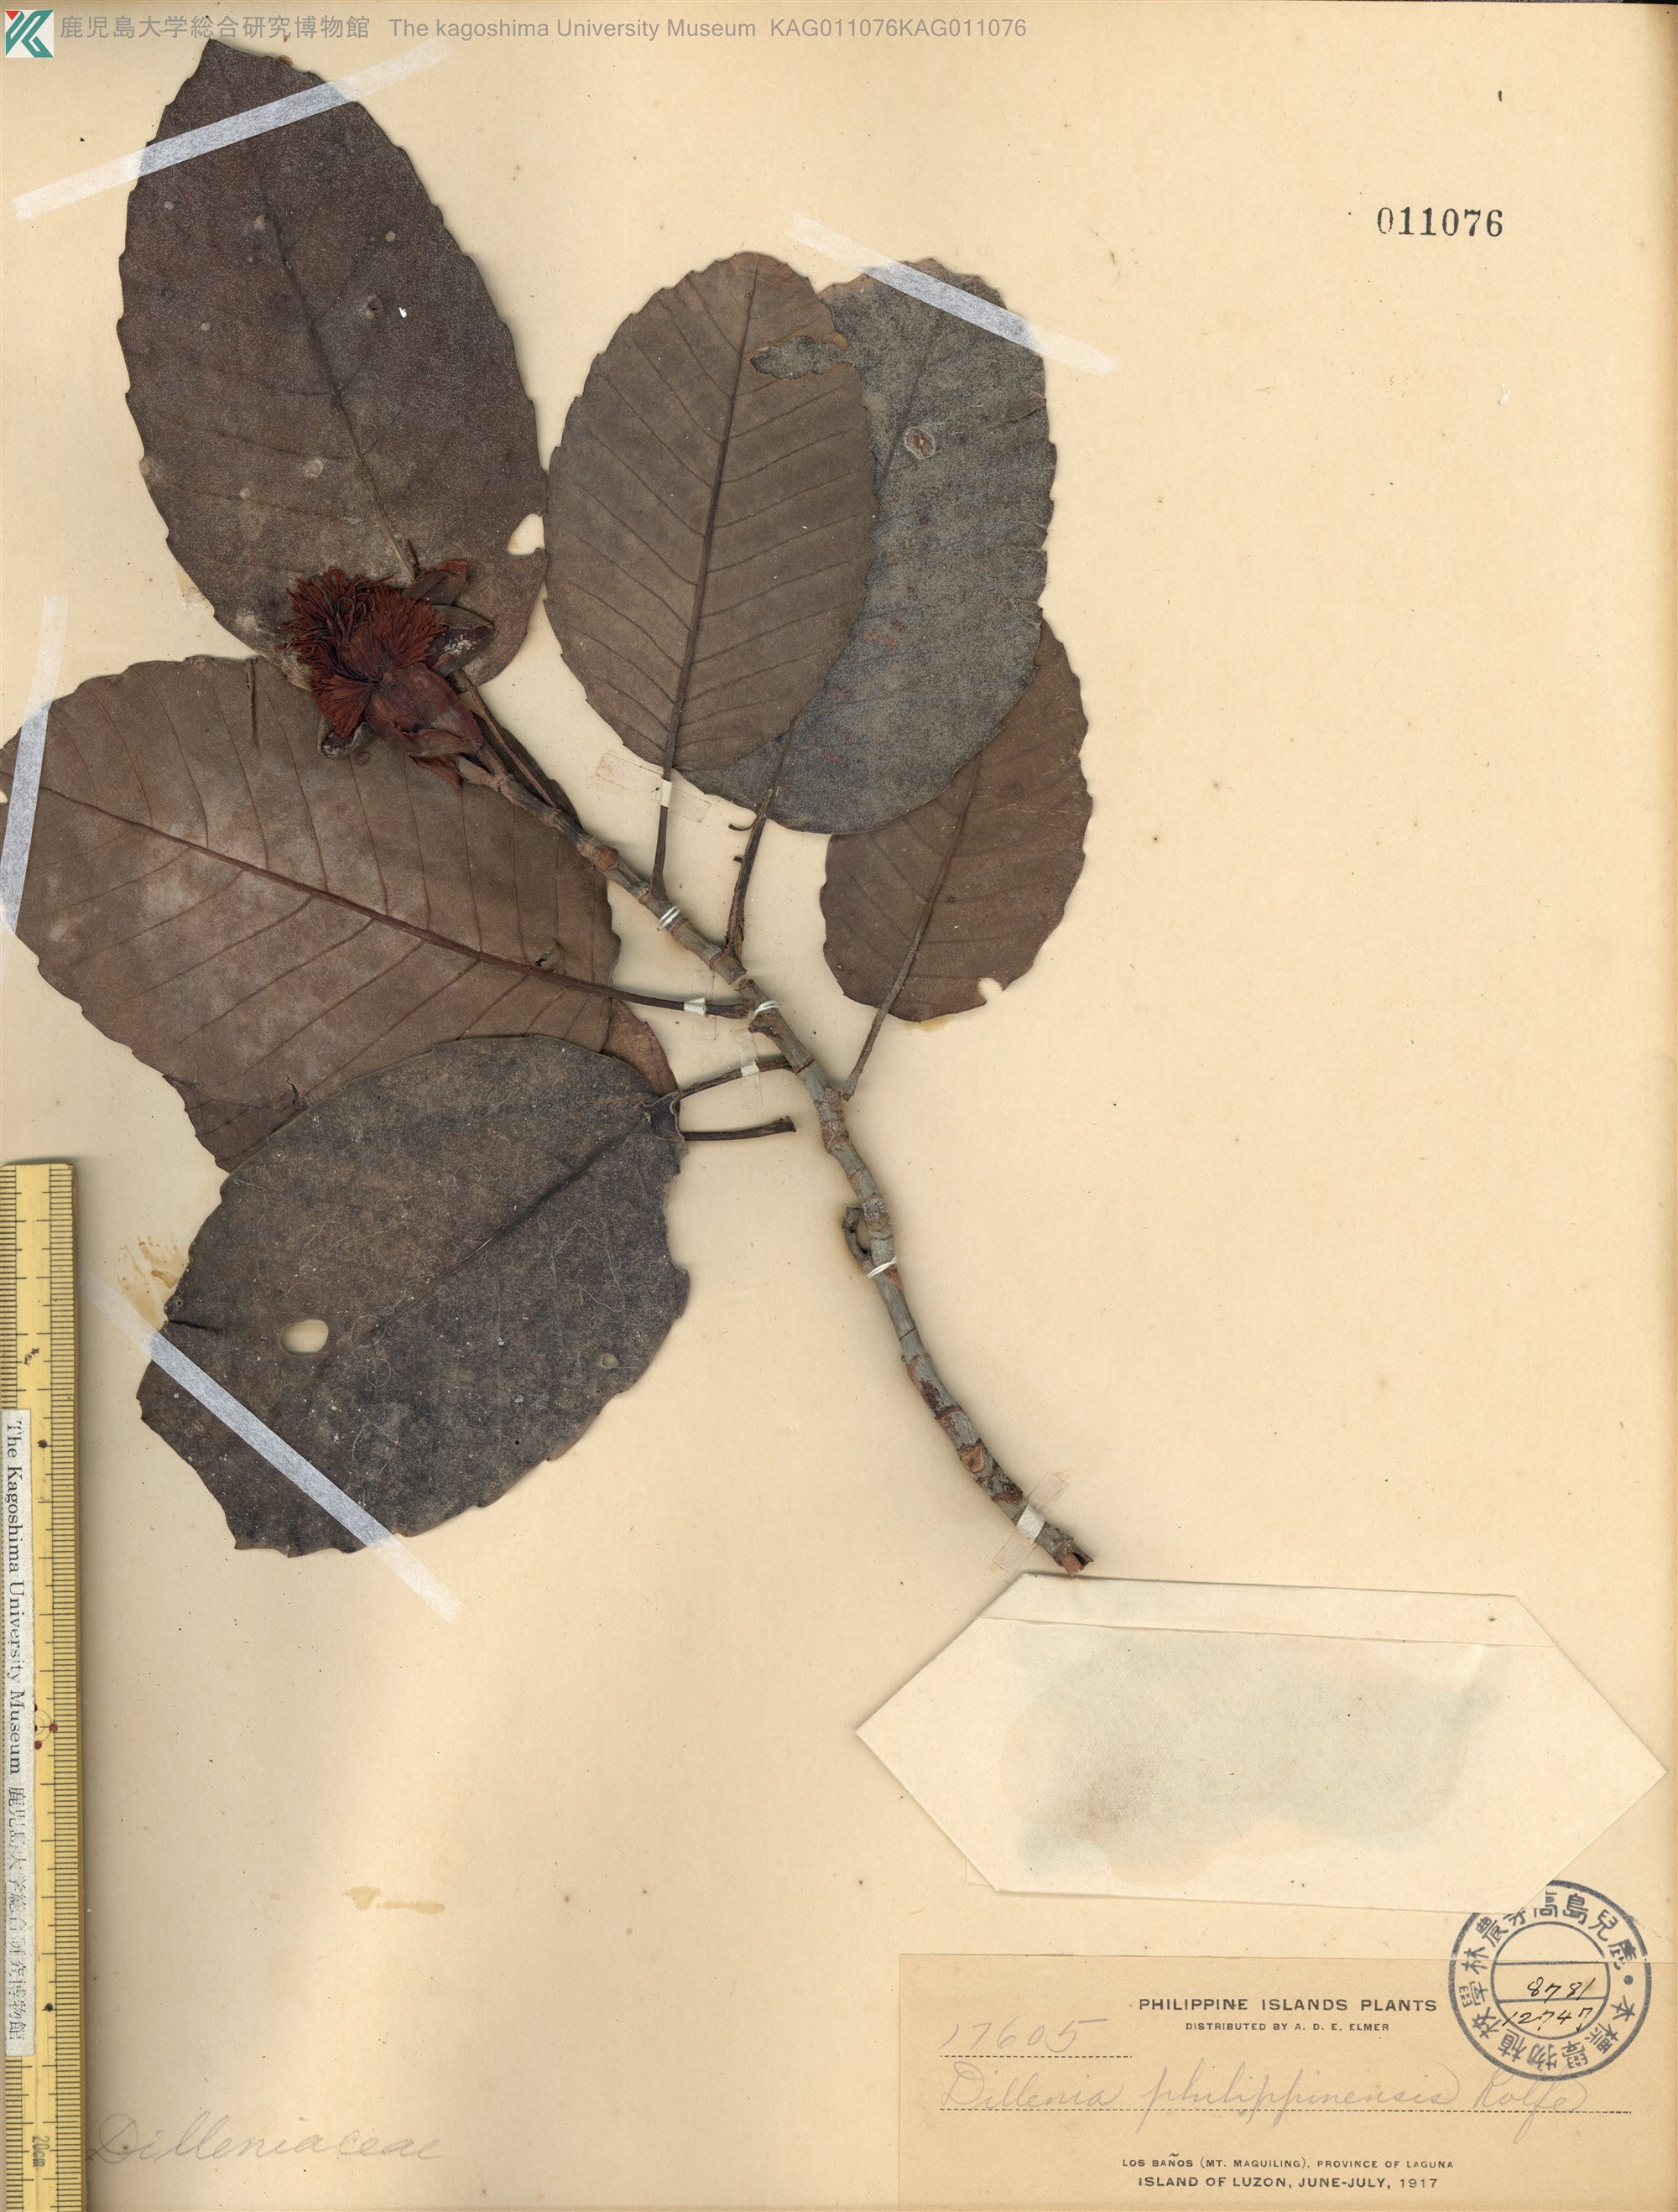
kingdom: Plantae
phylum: Tracheophyta
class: Magnoliopsida
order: Dilleniales
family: Dilleniaceae
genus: Dillenia
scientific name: Dillenia philippinensis
